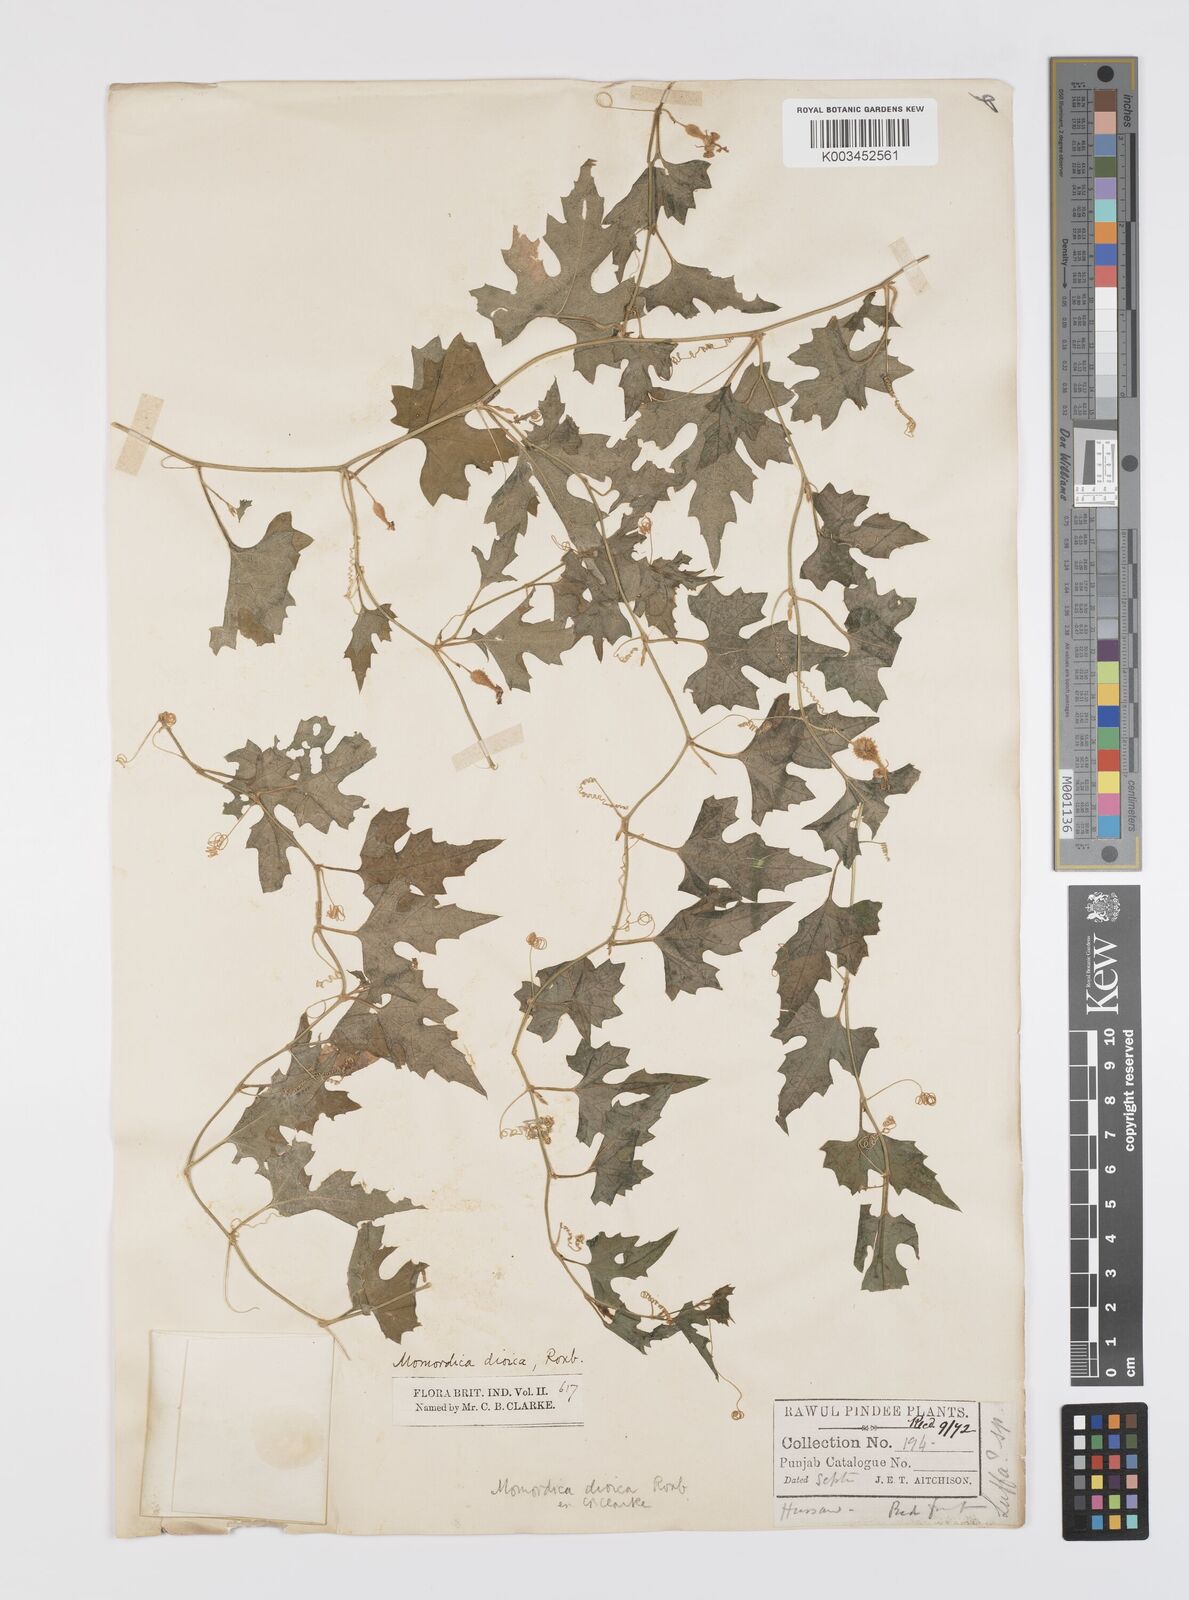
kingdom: Plantae
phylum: Tracheophyta
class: Magnoliopsida
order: Cucurbitales
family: Cucurbitaceae
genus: Momordica
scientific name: Momordica dioica
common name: Spine gourd
